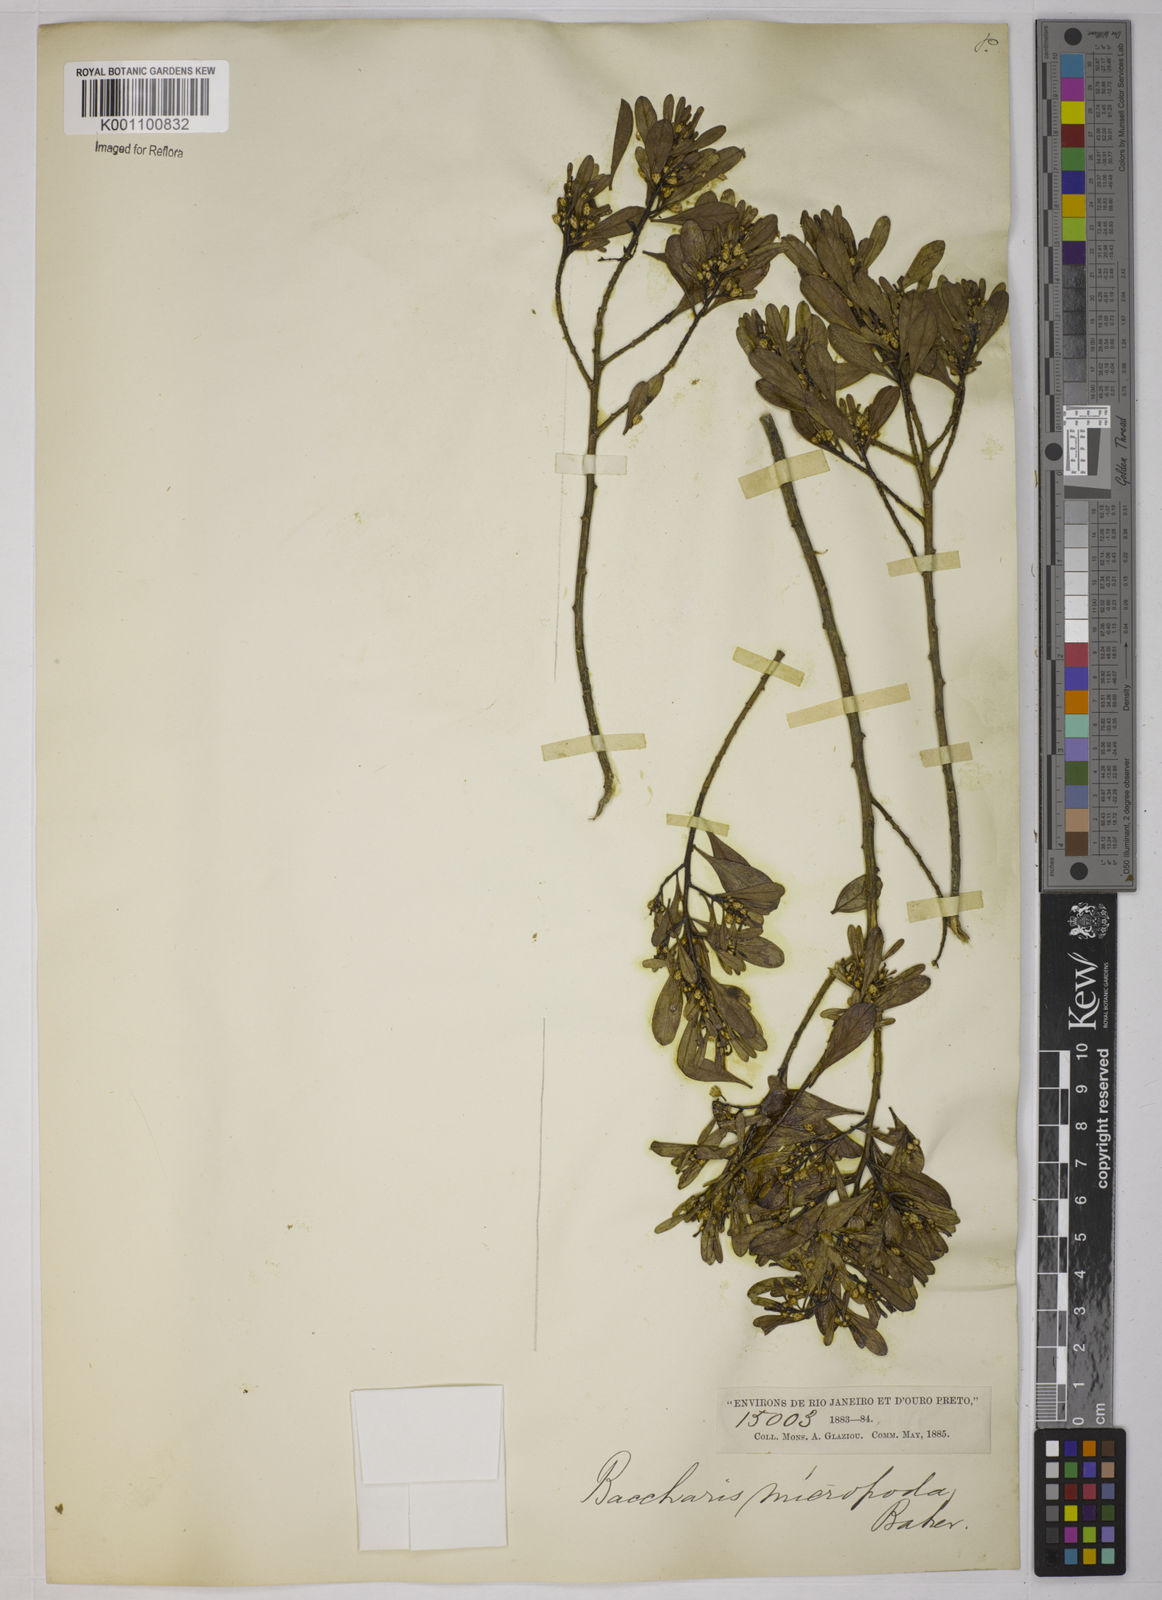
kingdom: Plantae
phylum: Tracheophyta
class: Magnoliopsida
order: Asterales
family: Asteraceae
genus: Baccharis
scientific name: Baccharis reticularia
